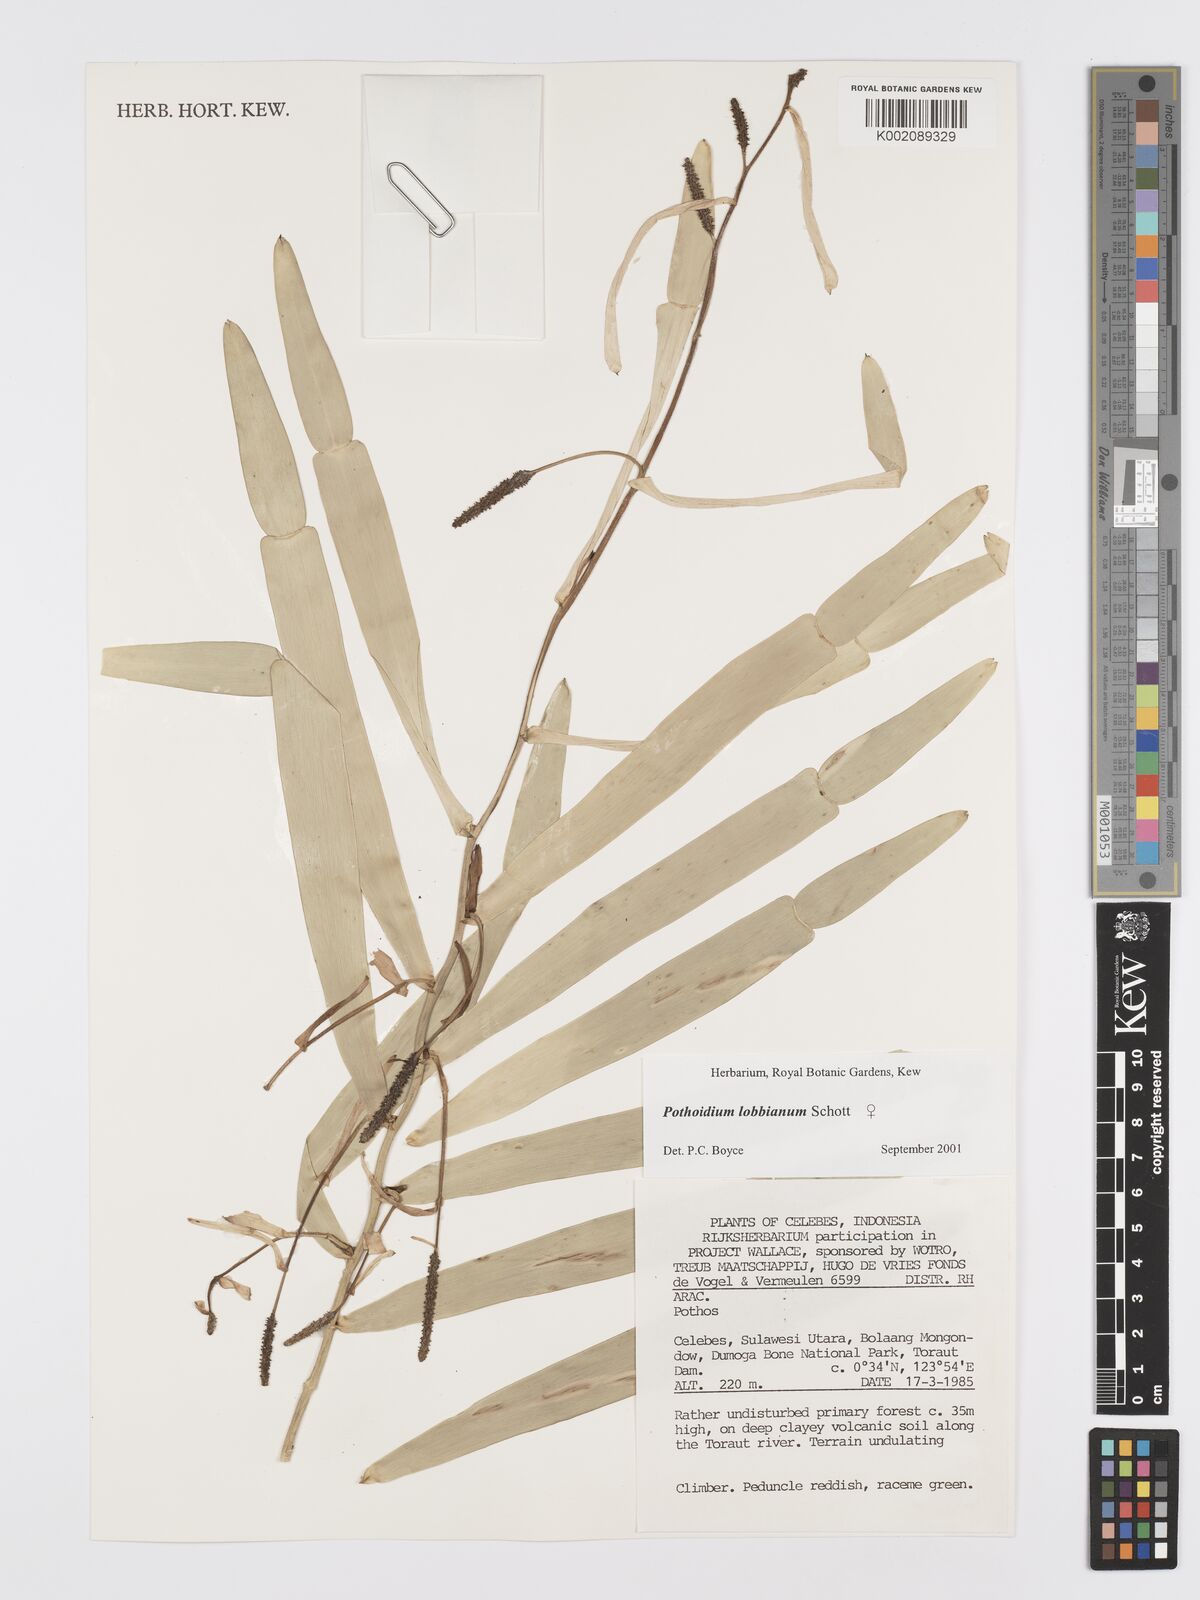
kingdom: Plantae
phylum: Tracheophyta
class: Liliopsida
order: Alismatales
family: Araceae
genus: Pothoidium
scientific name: Pothoidium lobbianum
